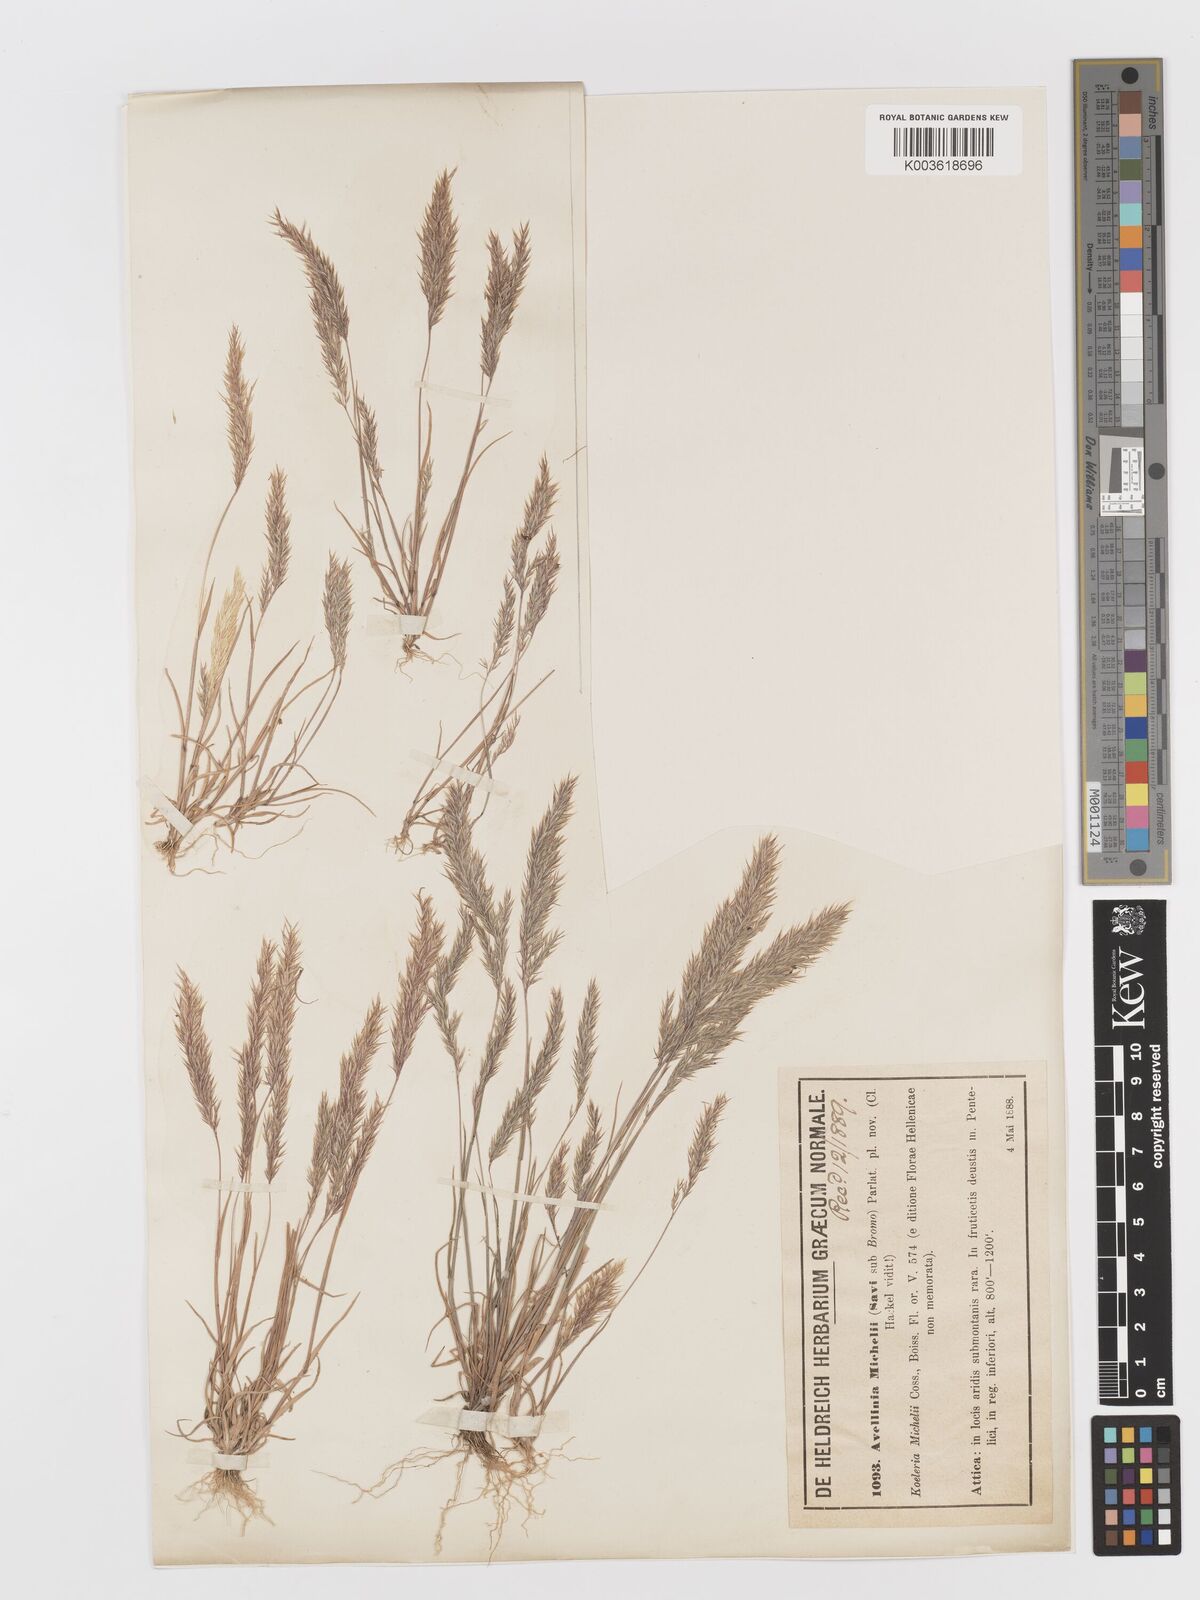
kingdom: Plantae
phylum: Tracheophyta
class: Liliopsida
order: Poales
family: Poaceae
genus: Avellinia
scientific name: Avellinia festucoides
